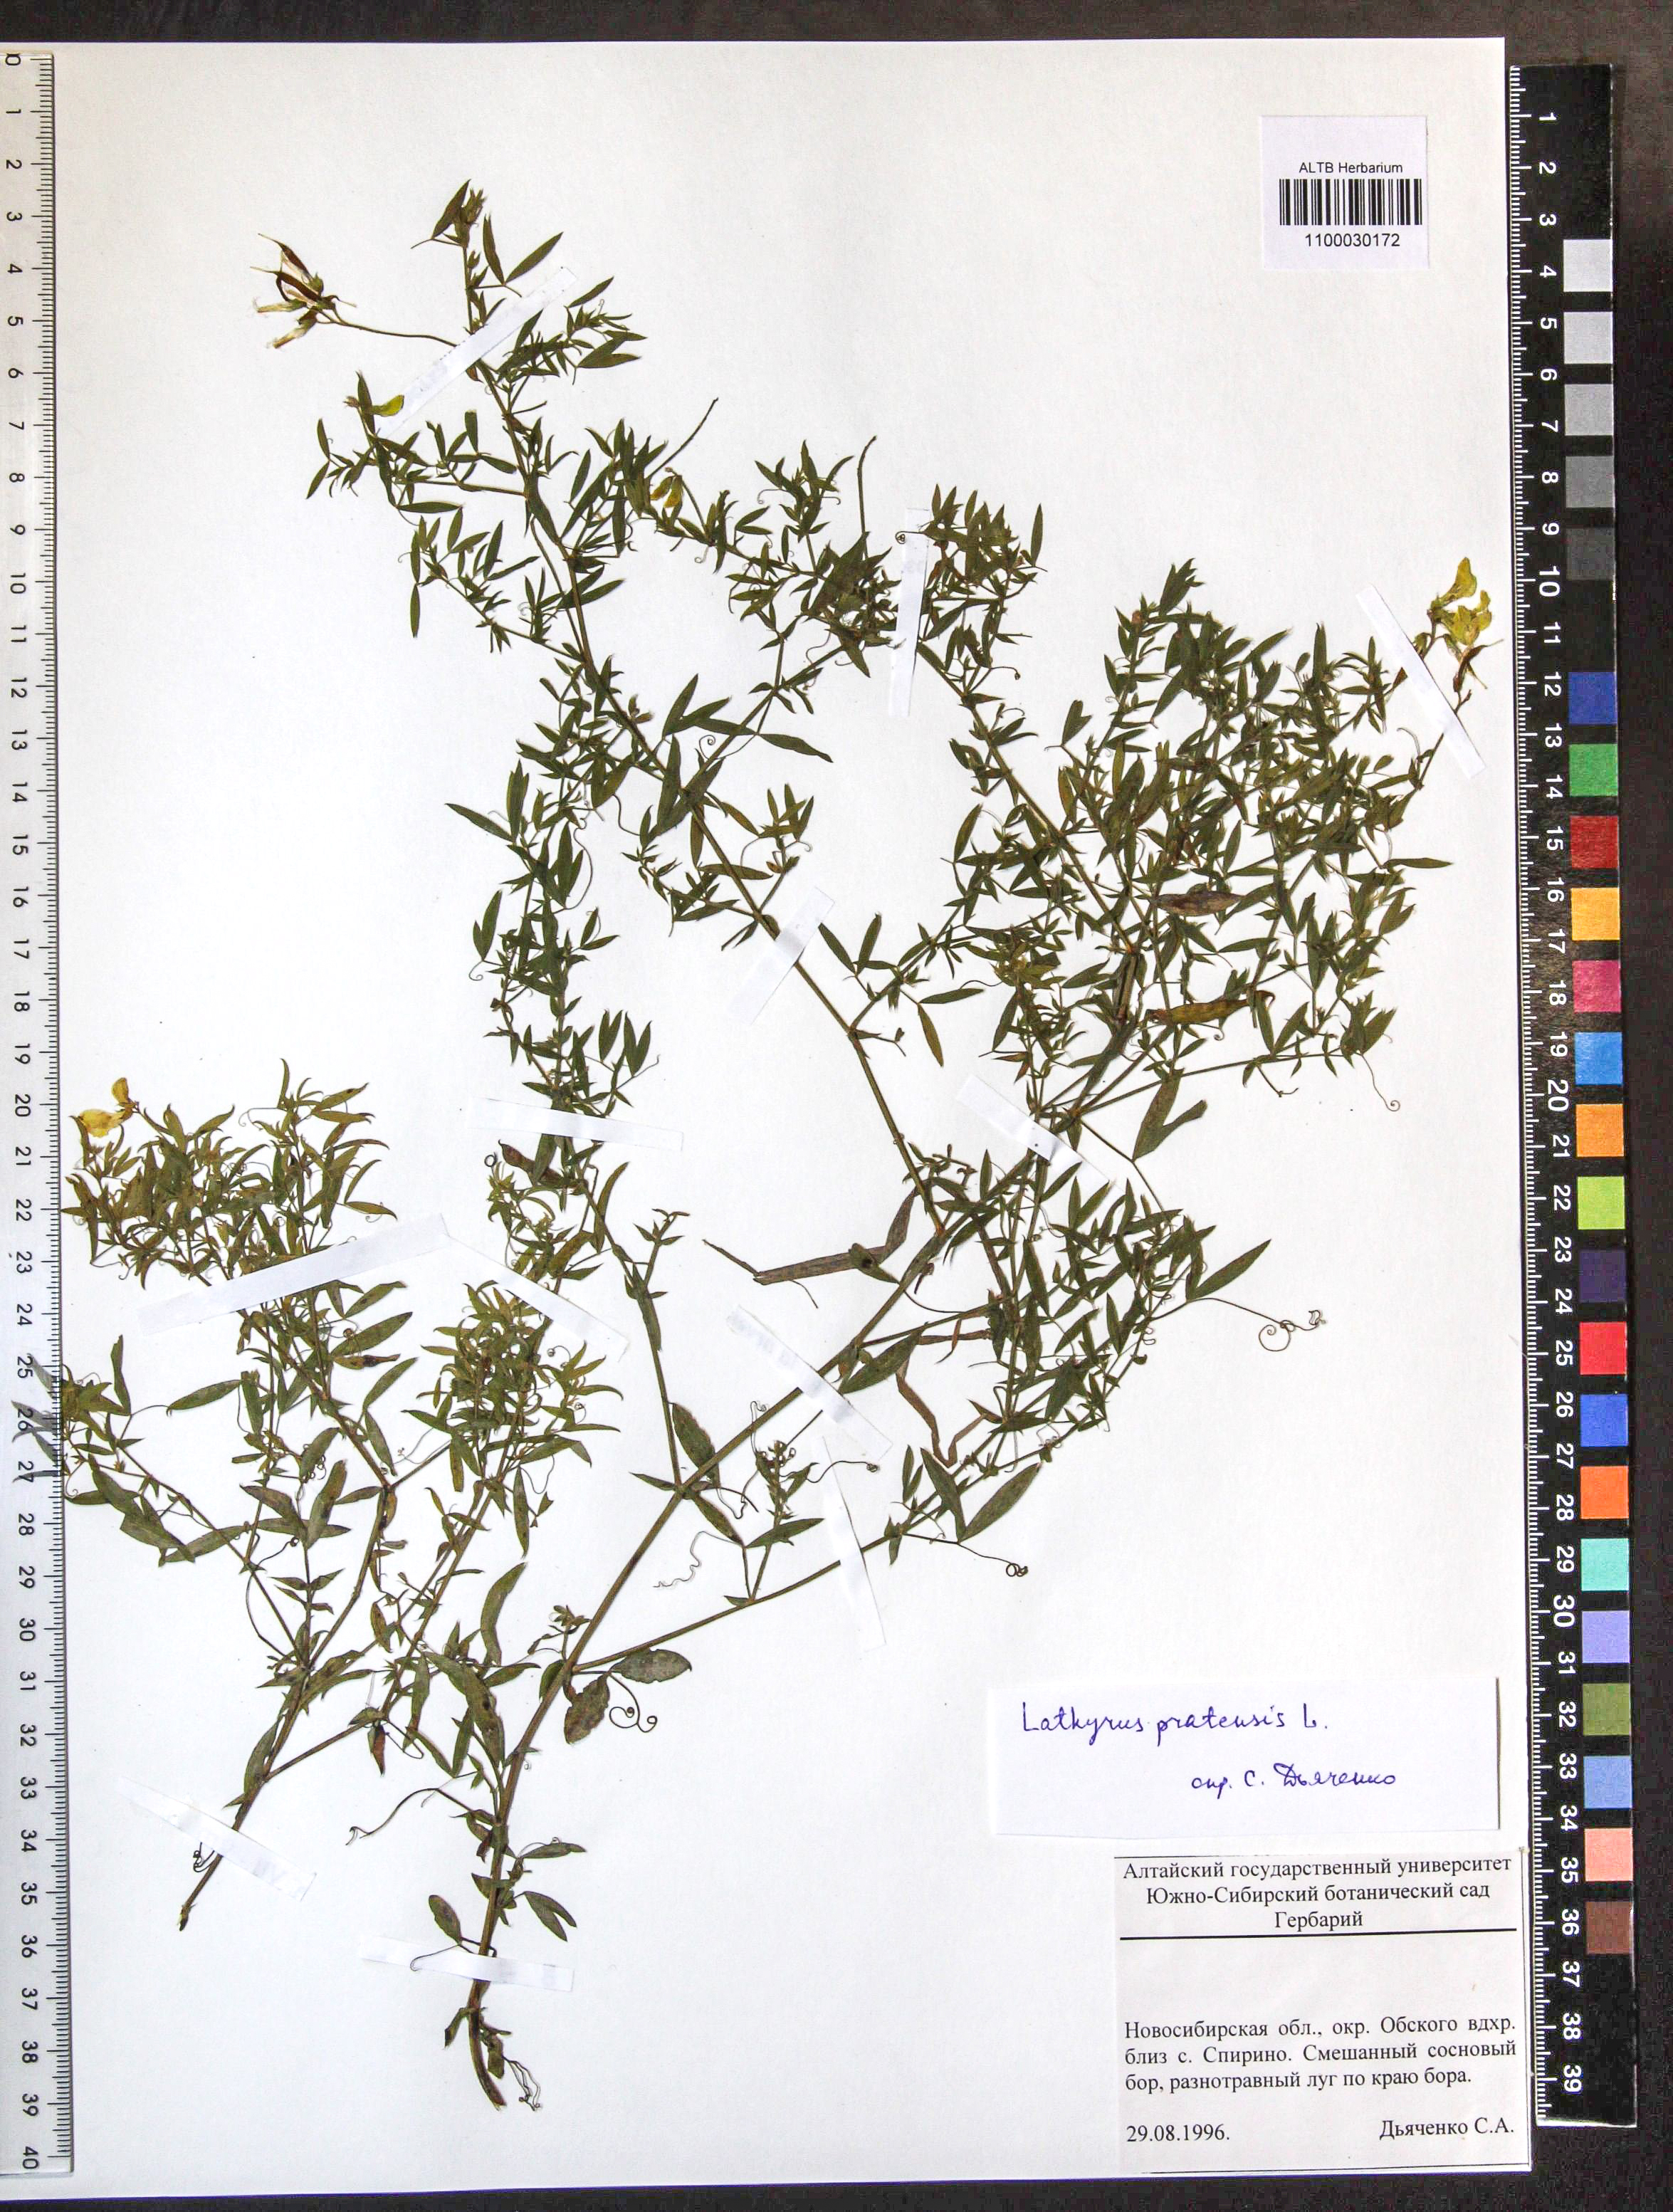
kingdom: Plantae
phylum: Tracheophyta
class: Magnoliopsida
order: Fabales
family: Fabaceae
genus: Lathyrus
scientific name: Lathyrus pratensis
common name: Meadow vetchling
